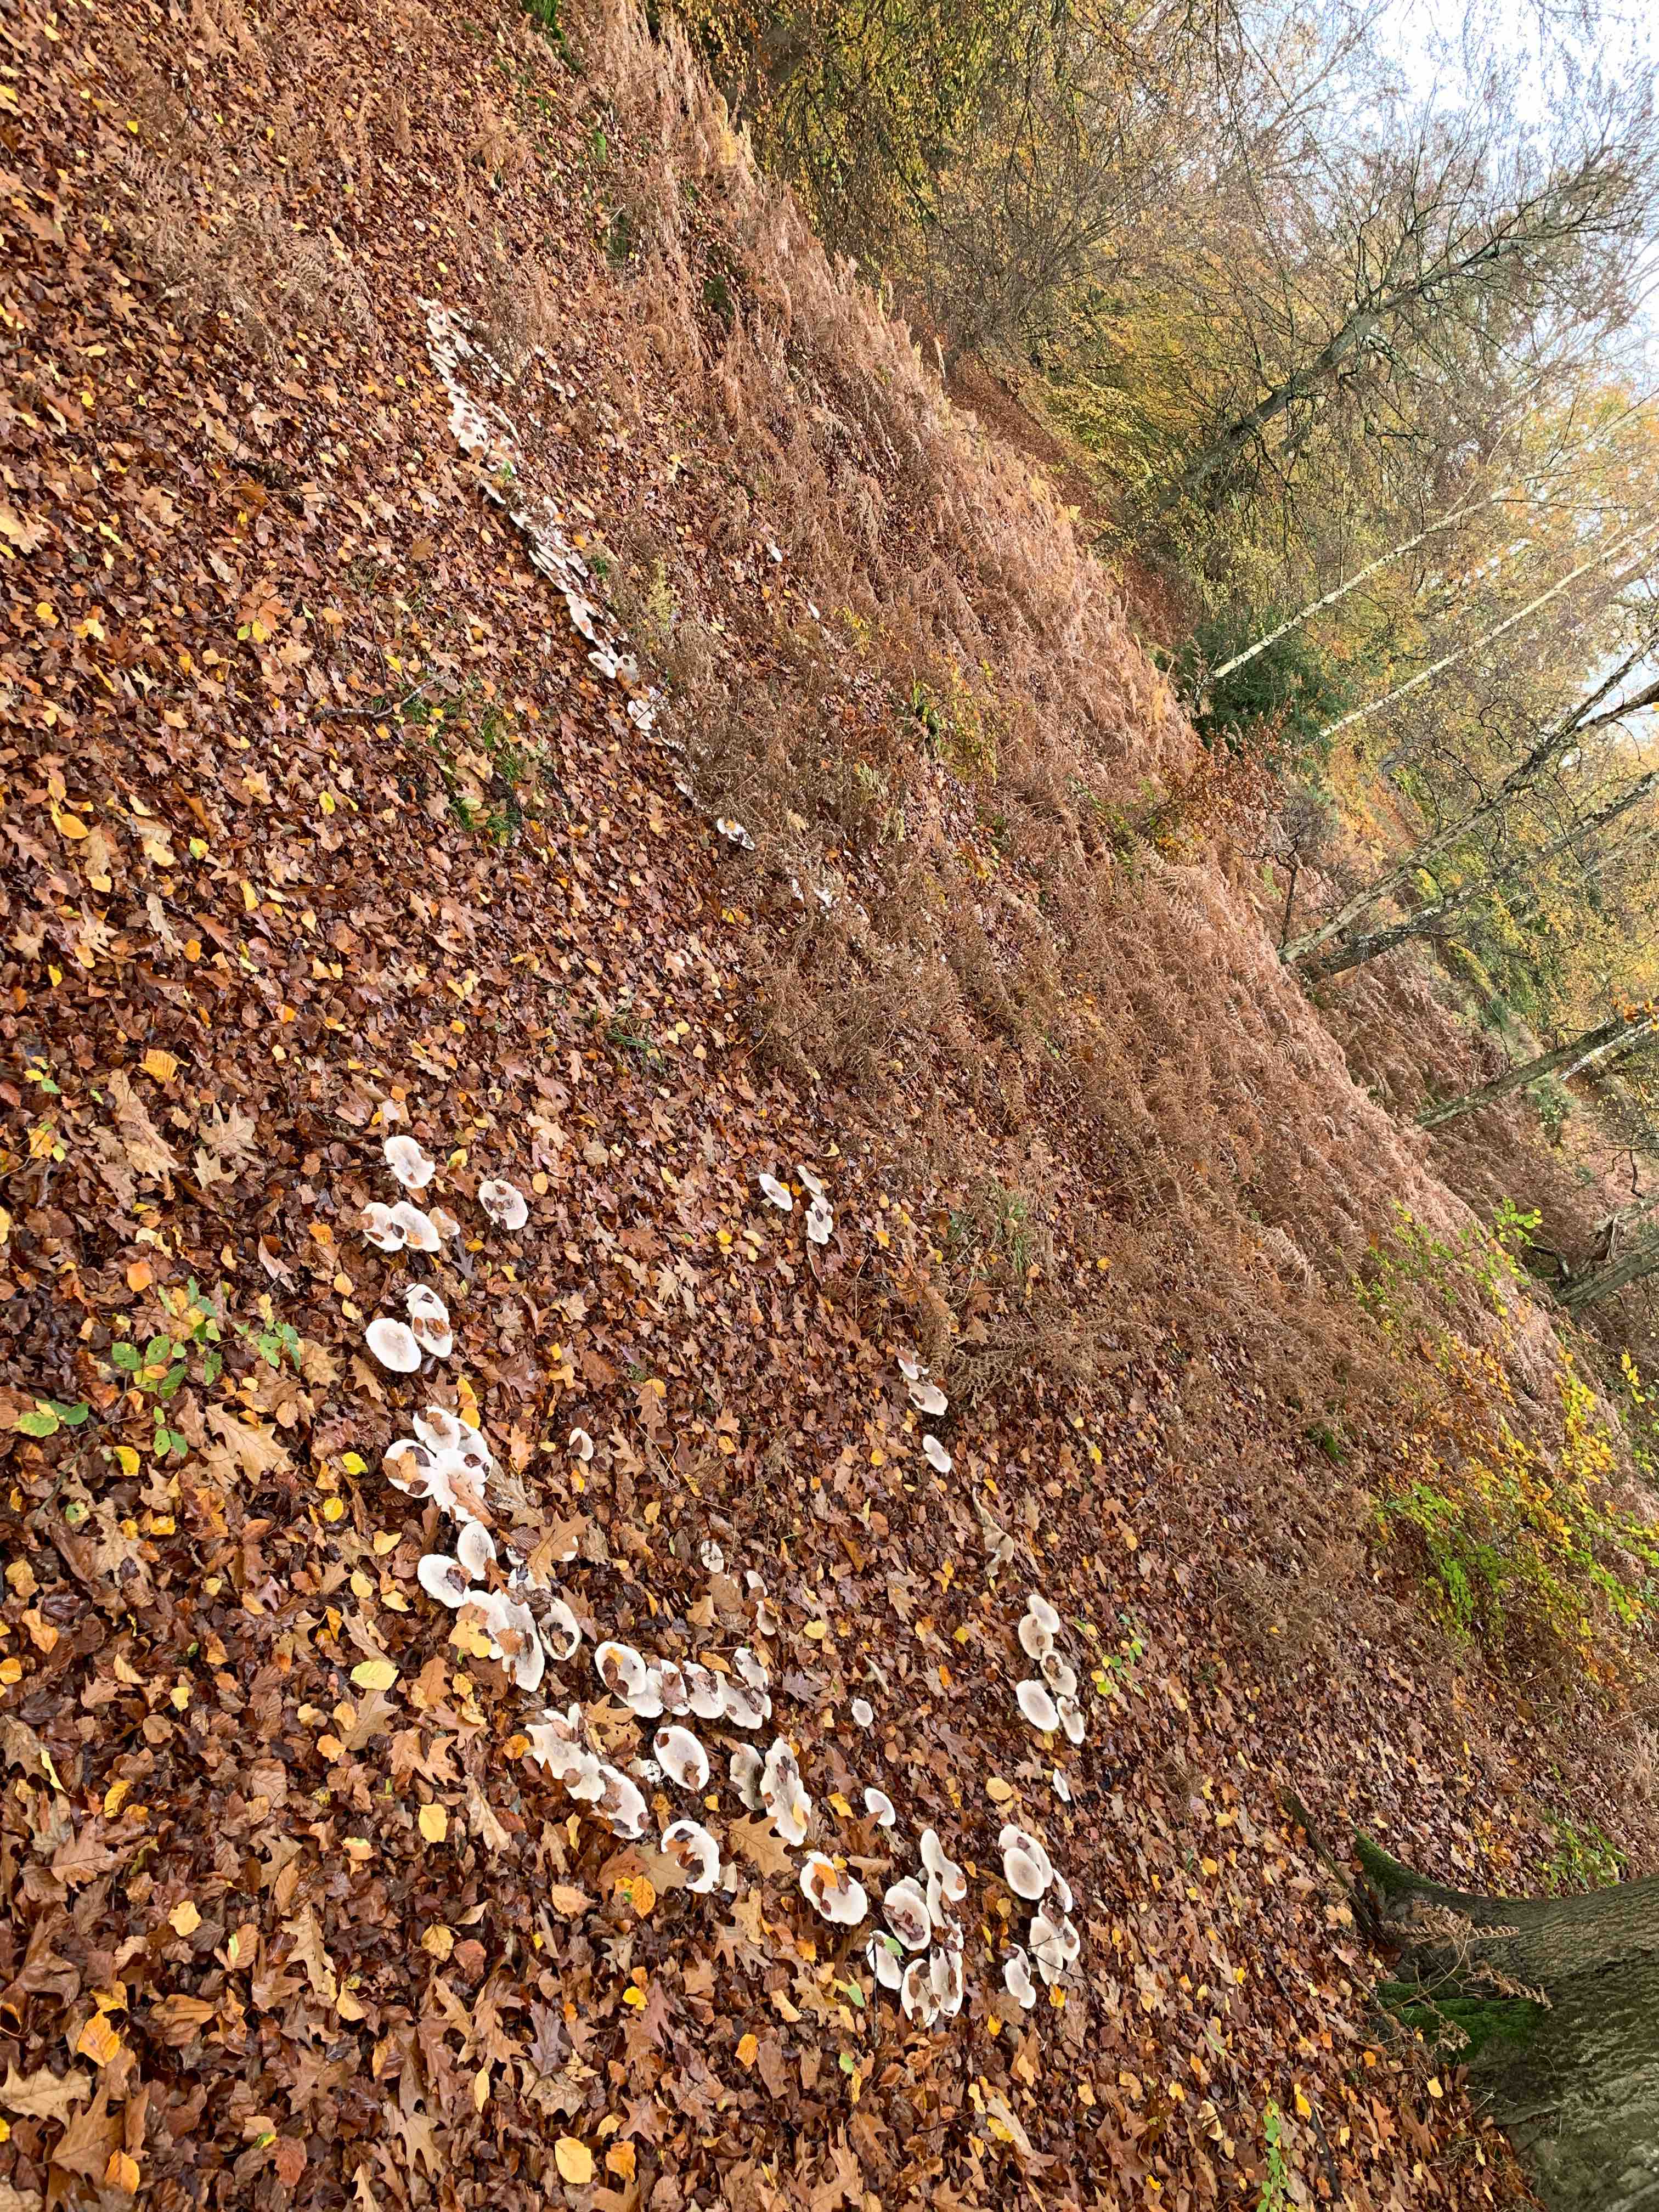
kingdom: Fungi
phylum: Basidiomycota
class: Agaricomycetes
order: Agaricales
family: Tricholomataceae
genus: Clitocybe
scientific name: Clitocybe nebularis
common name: tåge-tragthat
